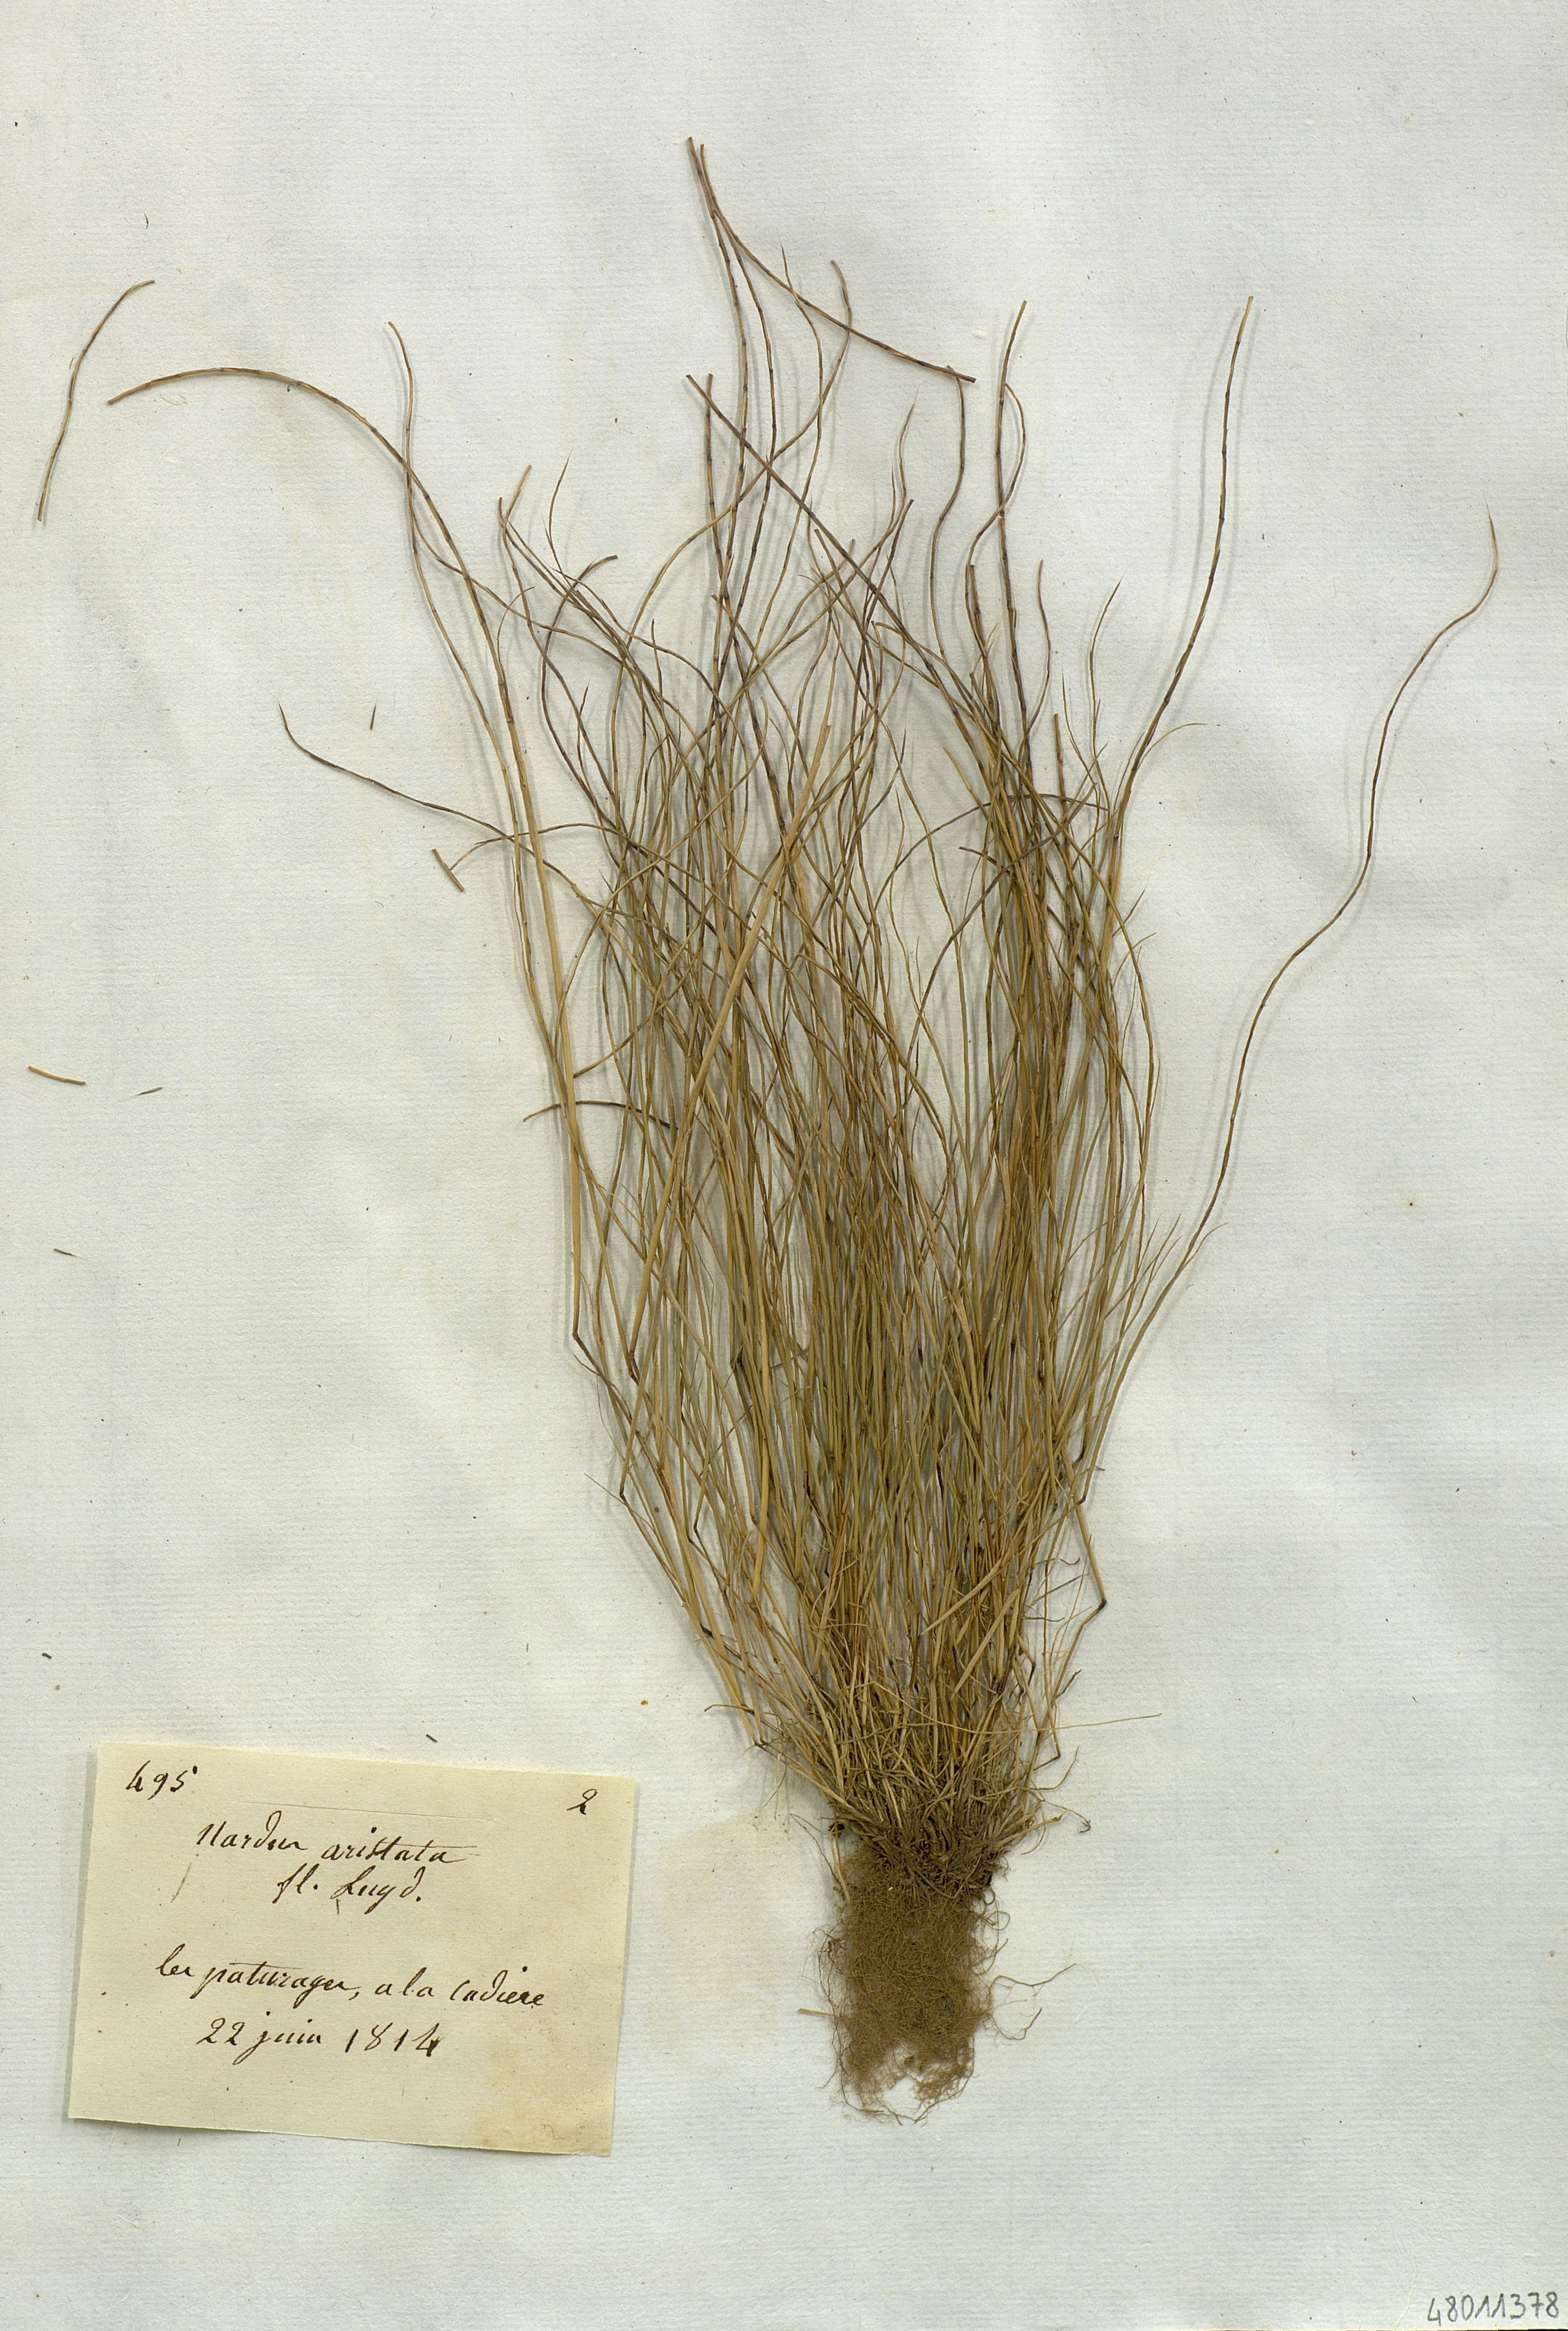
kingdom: Plantae
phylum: Tracheophyta
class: Liliopsida
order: Poales
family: Poaceae
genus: Festuca
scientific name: Festuca incurva
